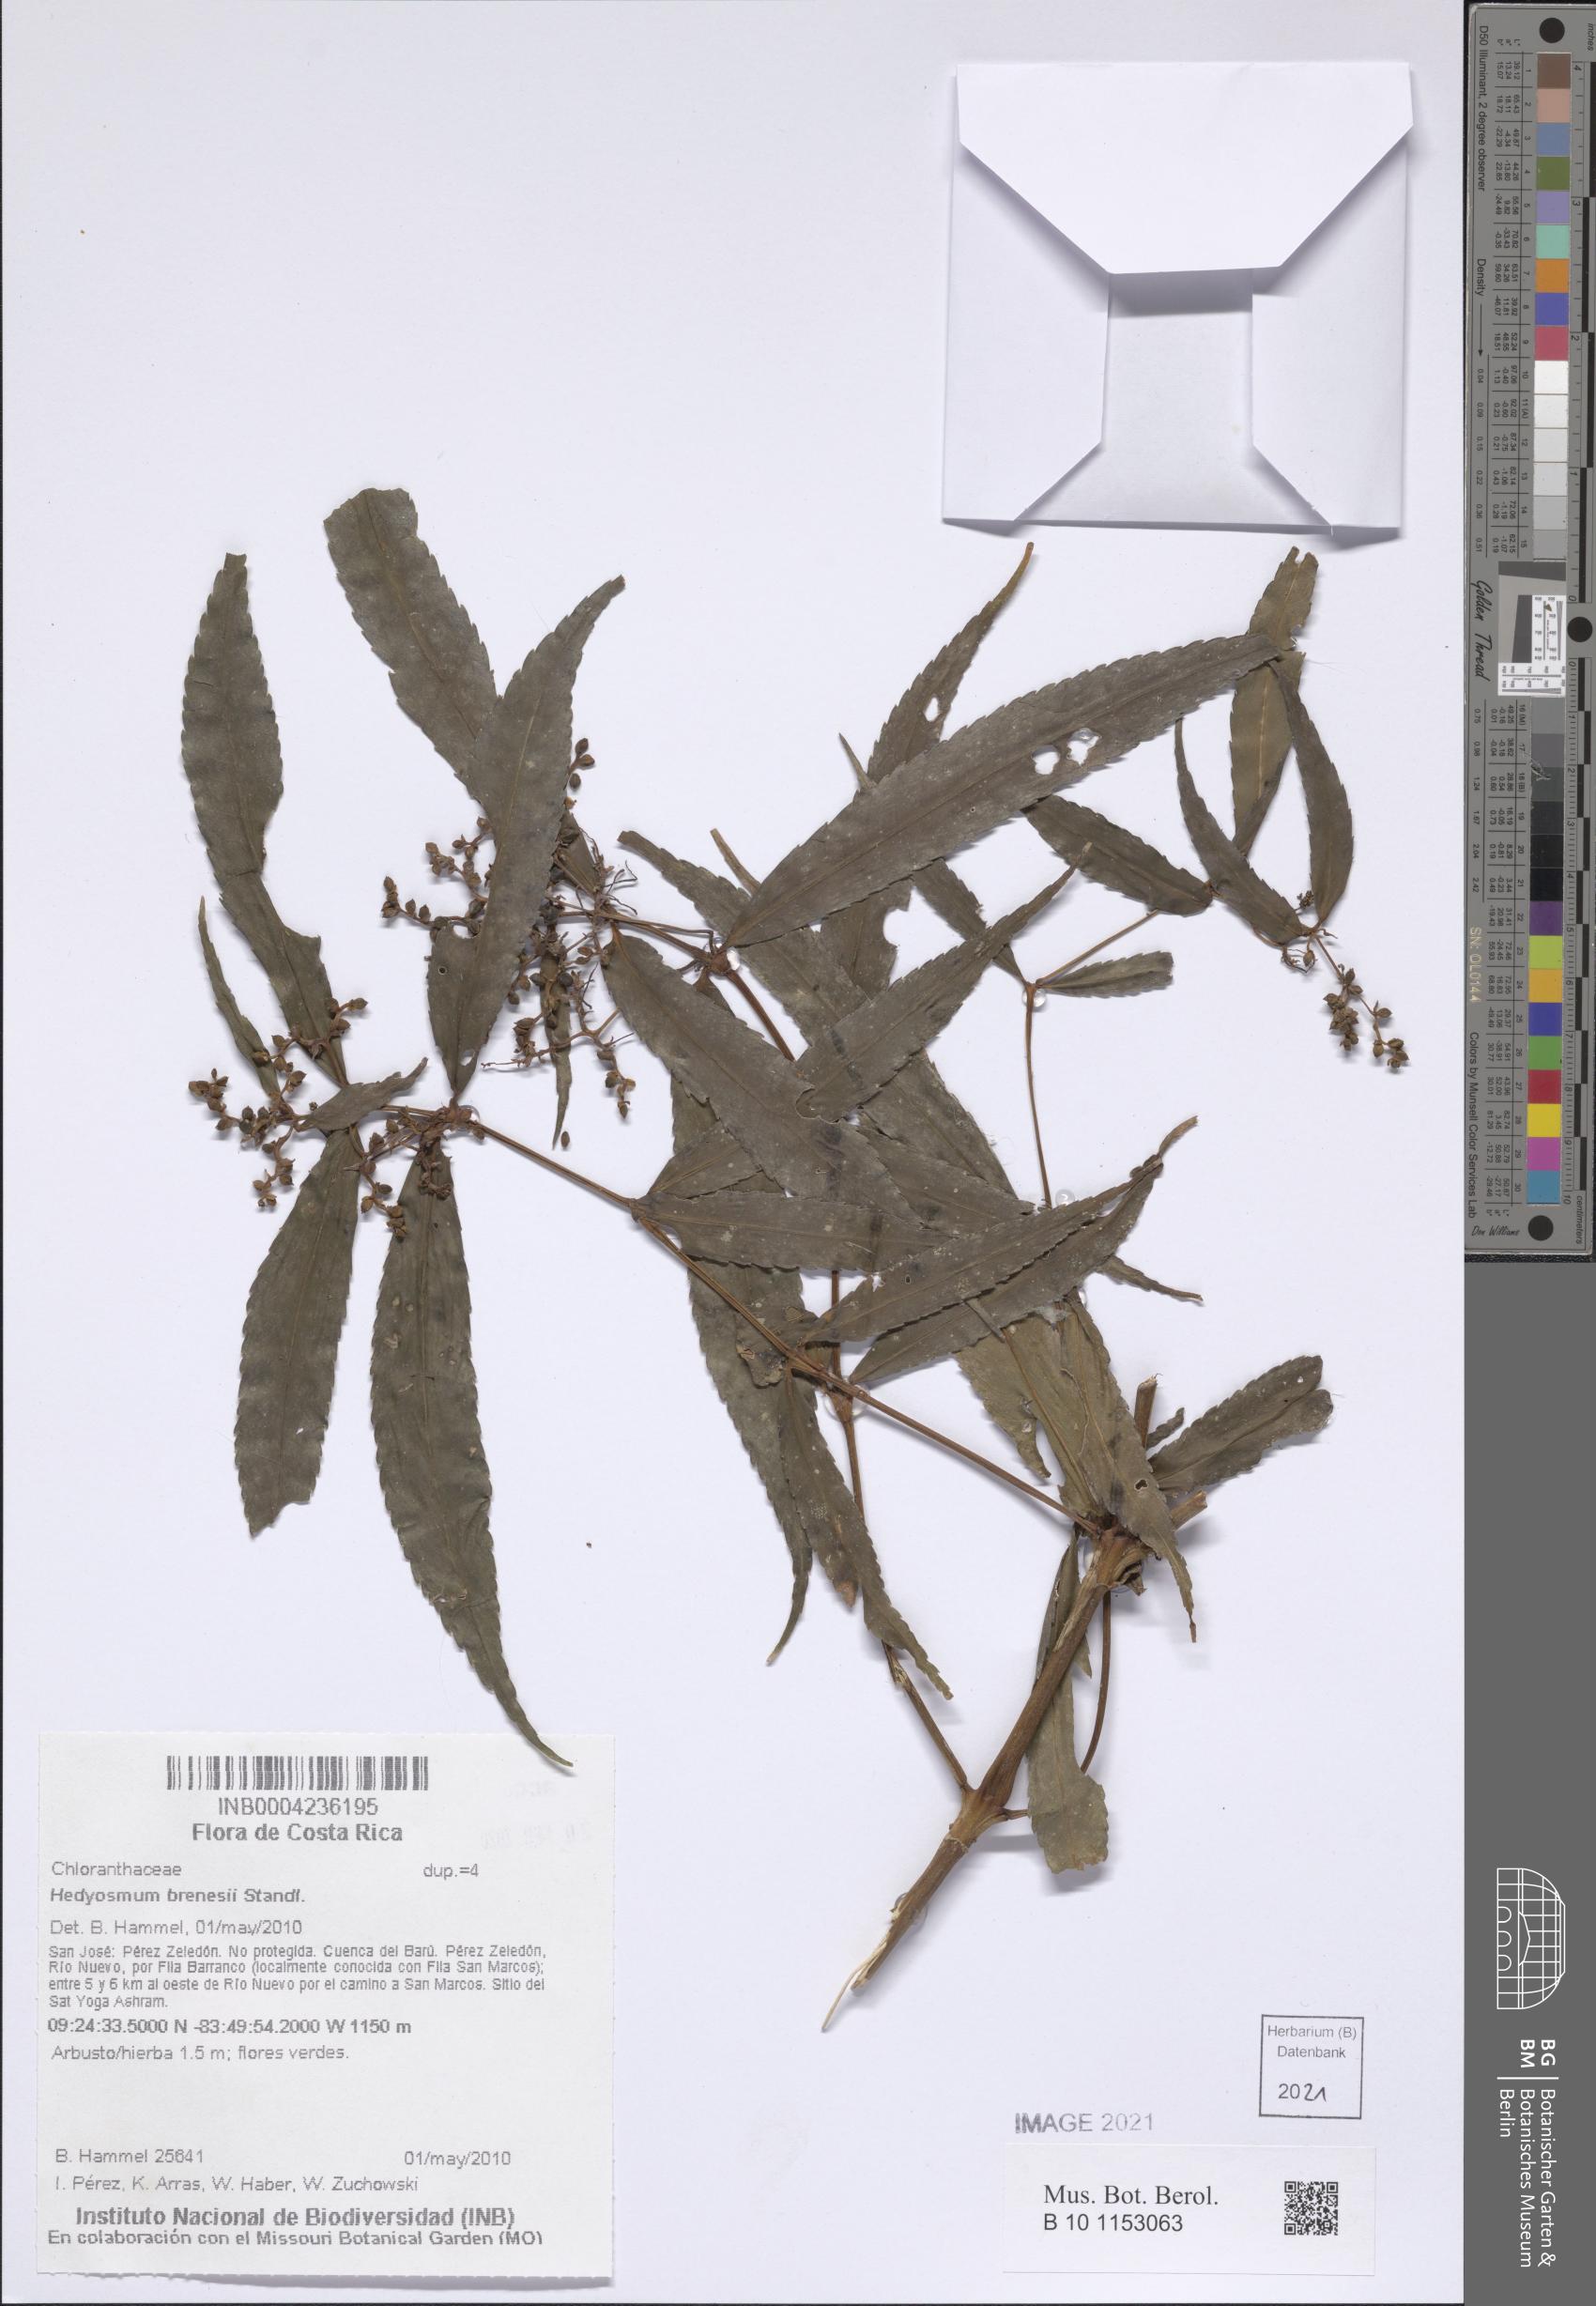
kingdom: Plantae
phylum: Tracheophyta
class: Magnoliopsida
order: Chloranthales
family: Chloranthaceae
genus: Hedyosmum
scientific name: Hedyosmum brenesii
